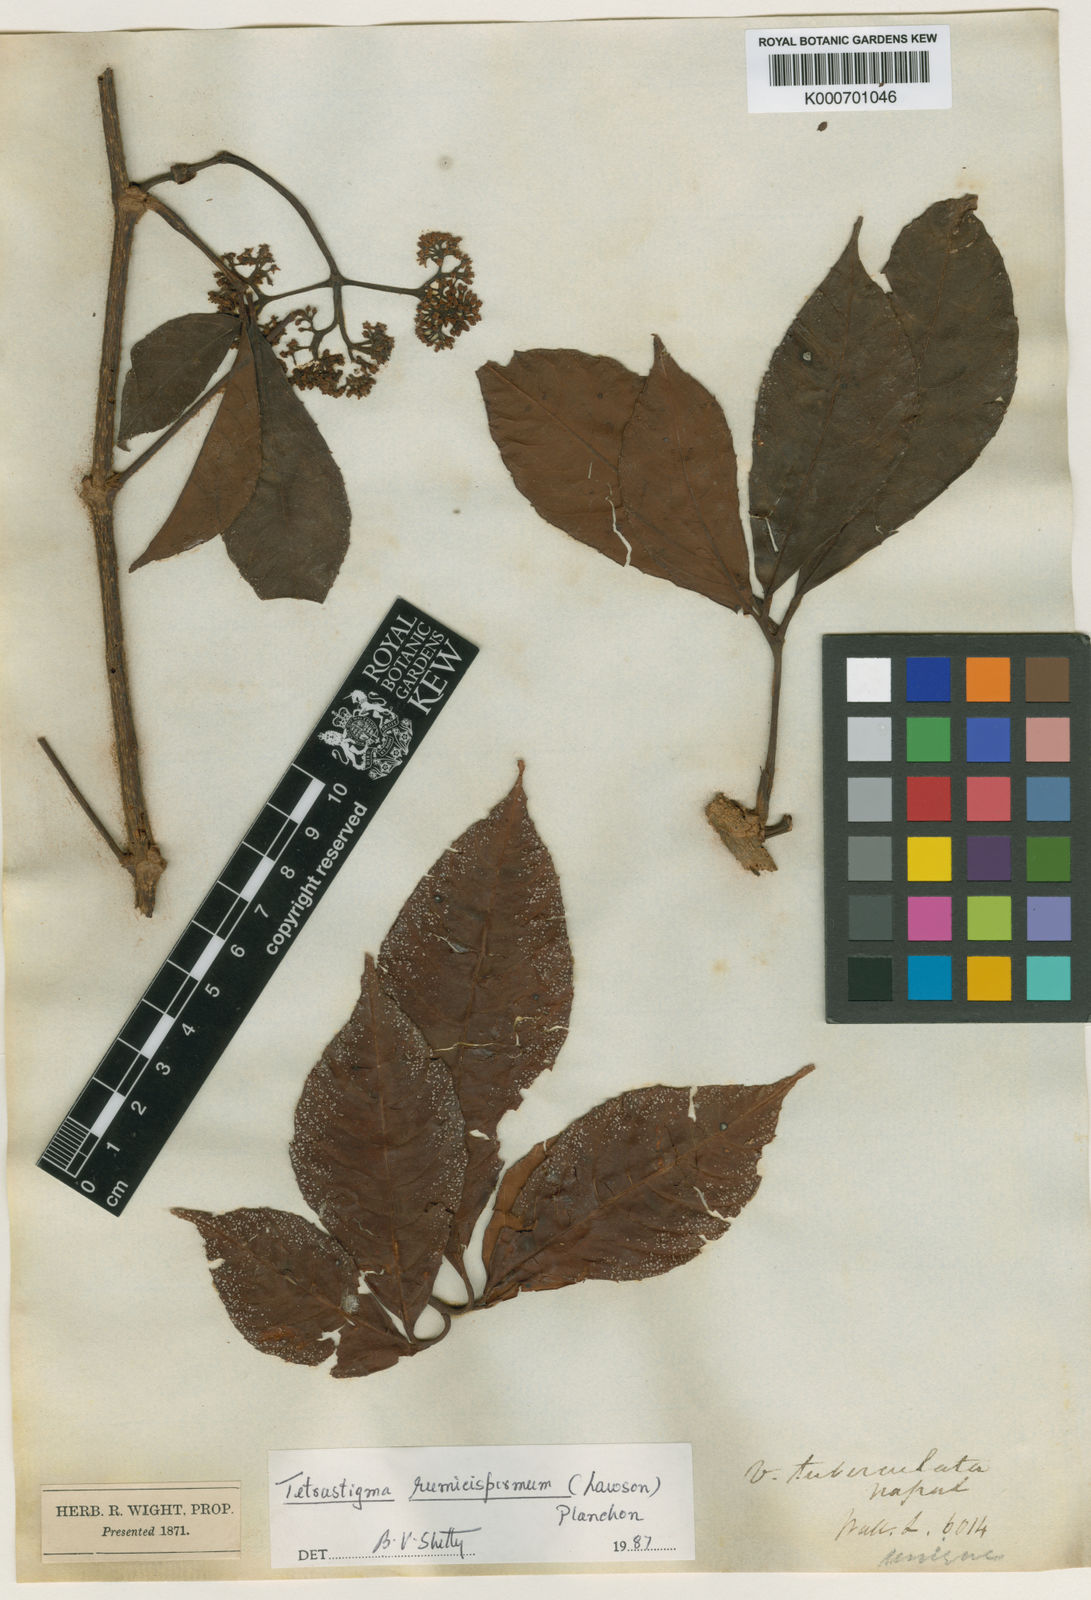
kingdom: Plantae
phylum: Tracheophyta
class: Magnoliopsida
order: Vitales
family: Vitaceae
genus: Tetrastigma
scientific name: Tetrastigma rumicispermum
